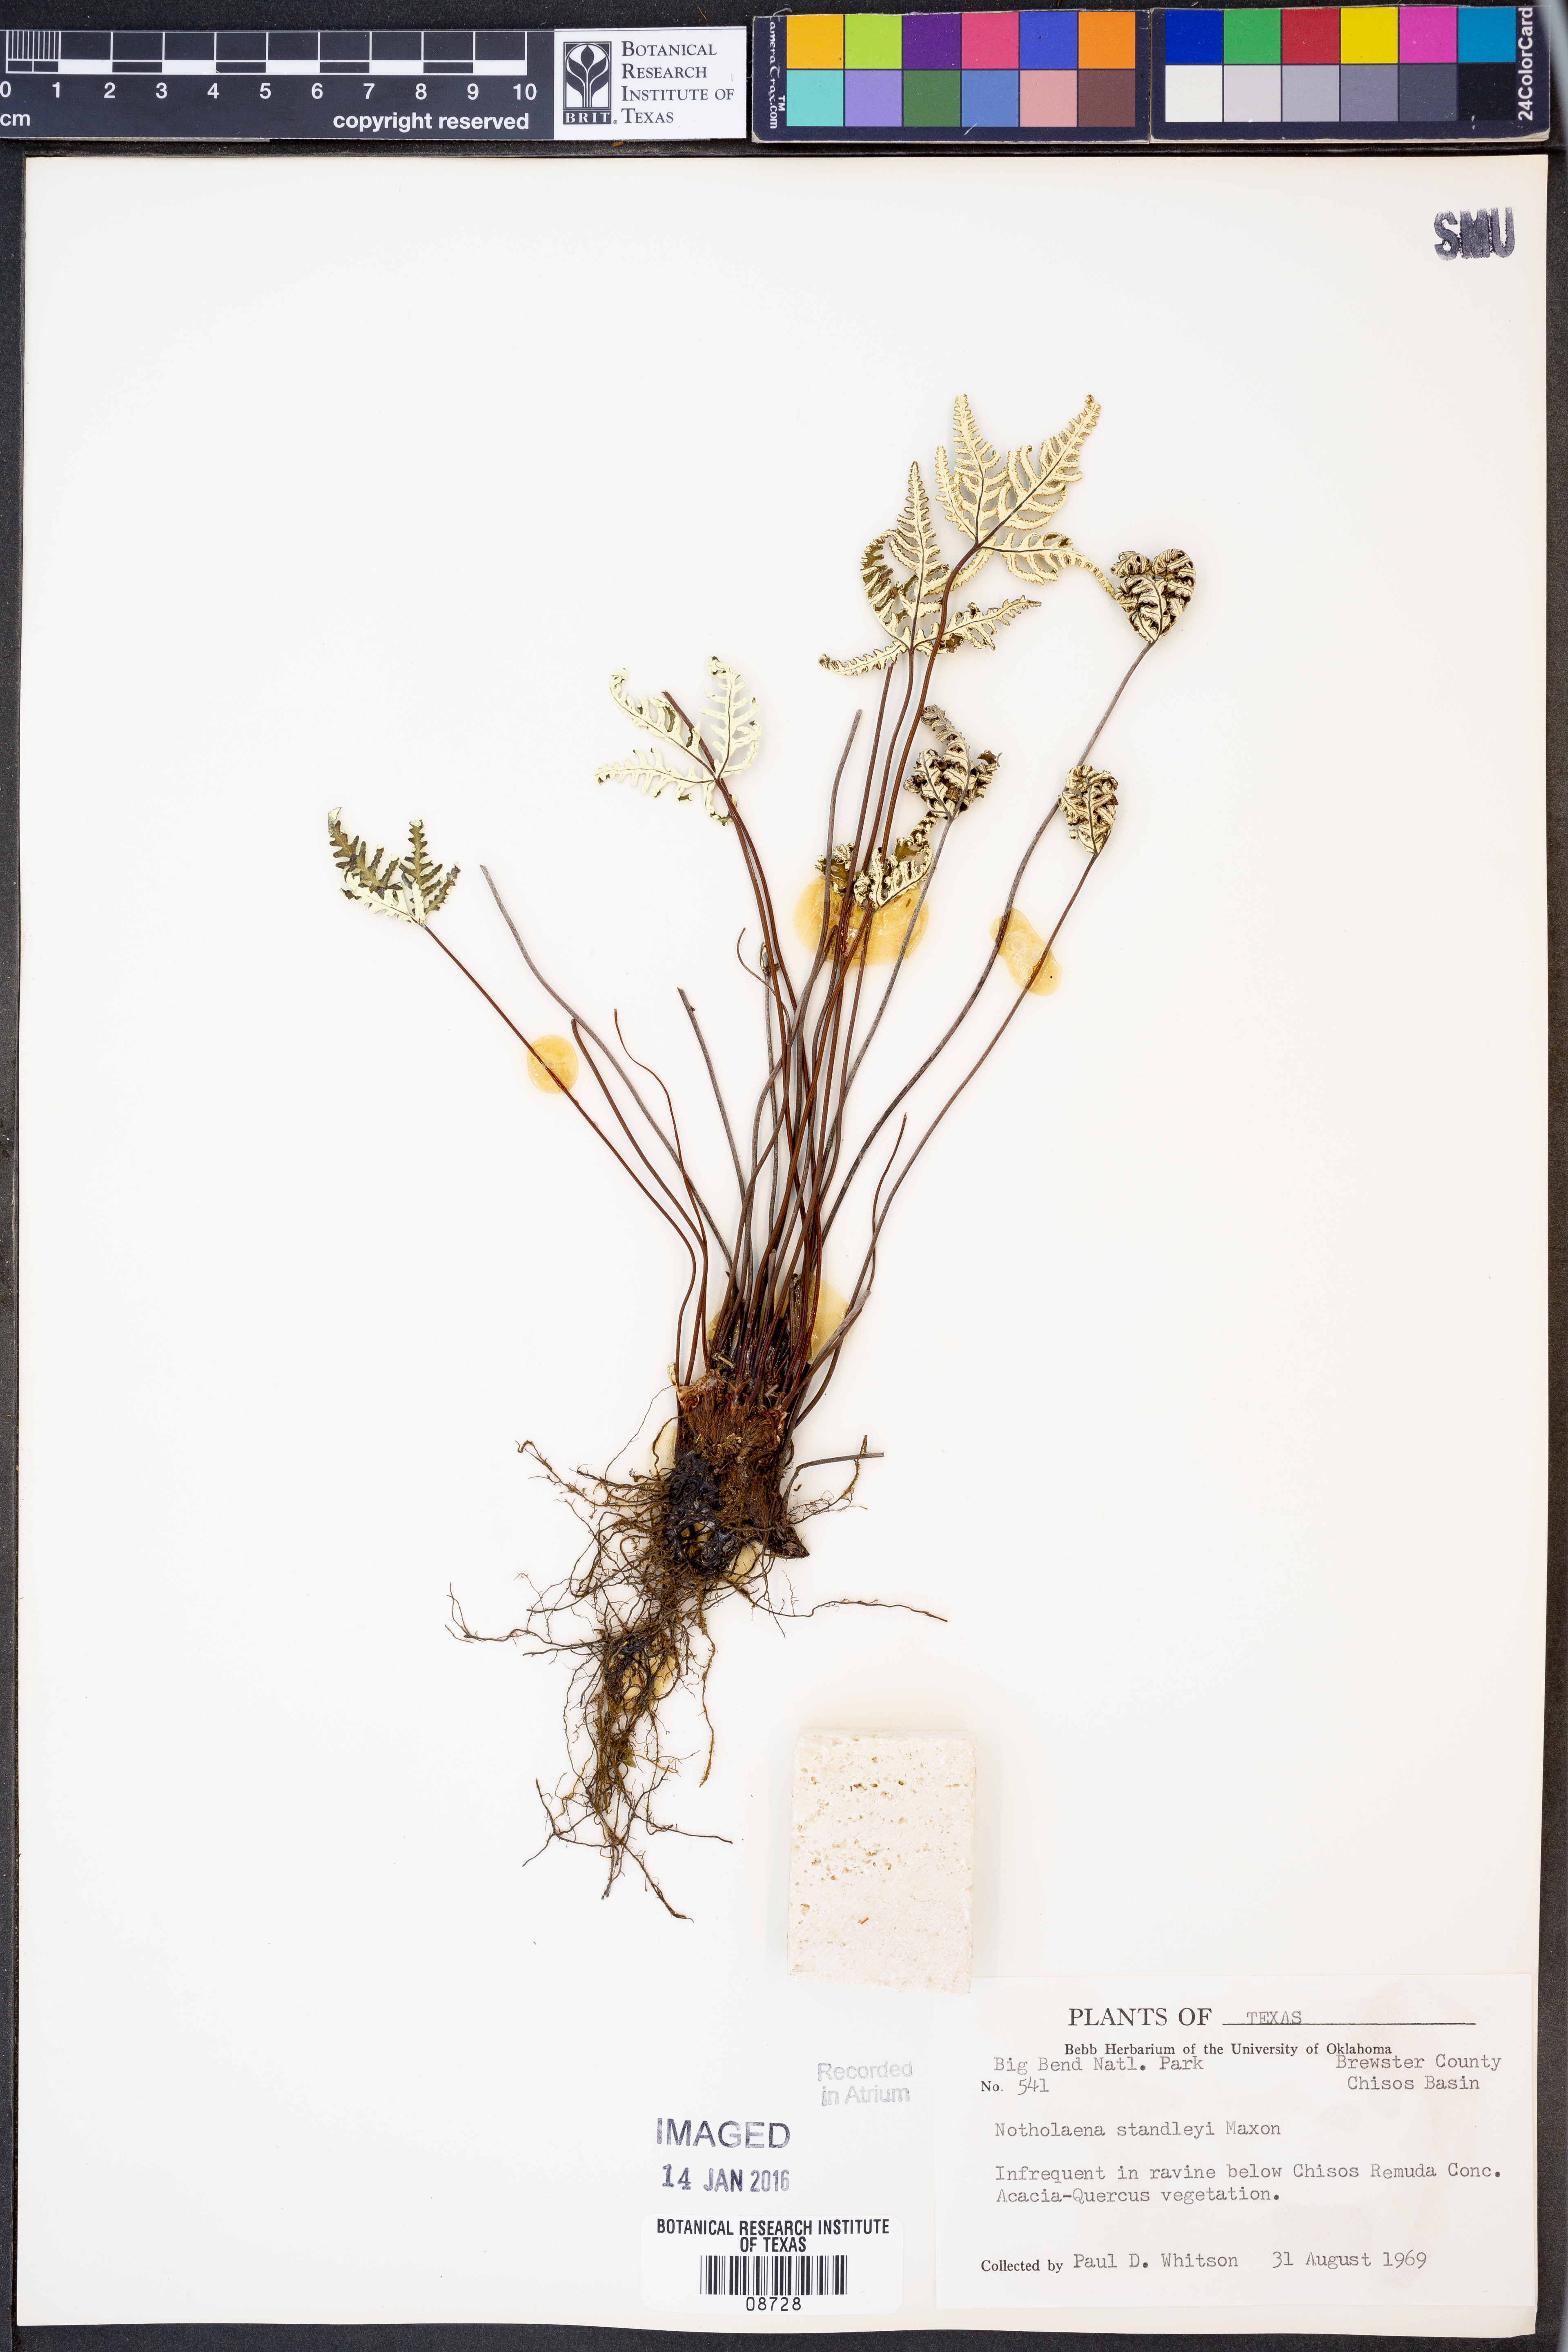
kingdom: Plantae
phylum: Tracheophyta
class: Polypodiopsida
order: Polypodiales
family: Pteridaceae
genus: Notholaena
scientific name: Notholaena standleyi
